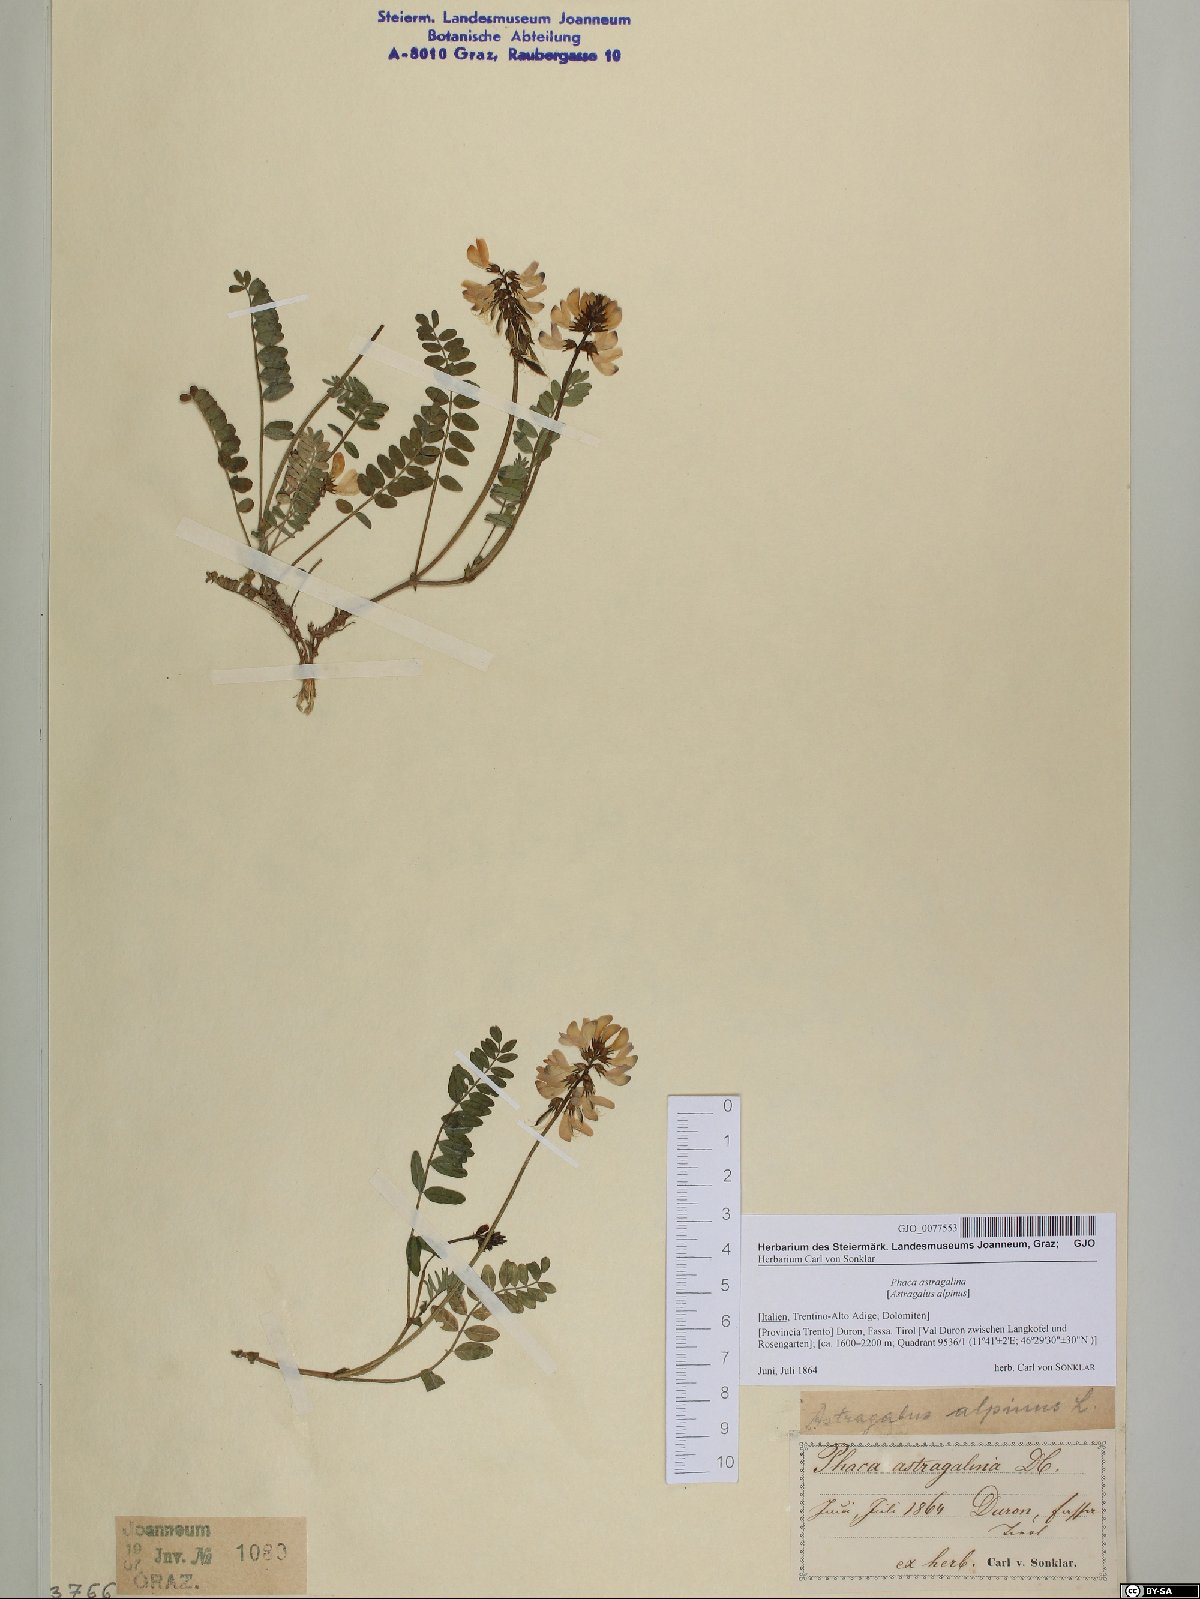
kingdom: Plantae
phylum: Tracheophyta
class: Magnoliopsida
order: Fabales
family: Fabaceae
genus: Astragalus
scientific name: Astragalus alpinus
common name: Alpine milk-vetch
